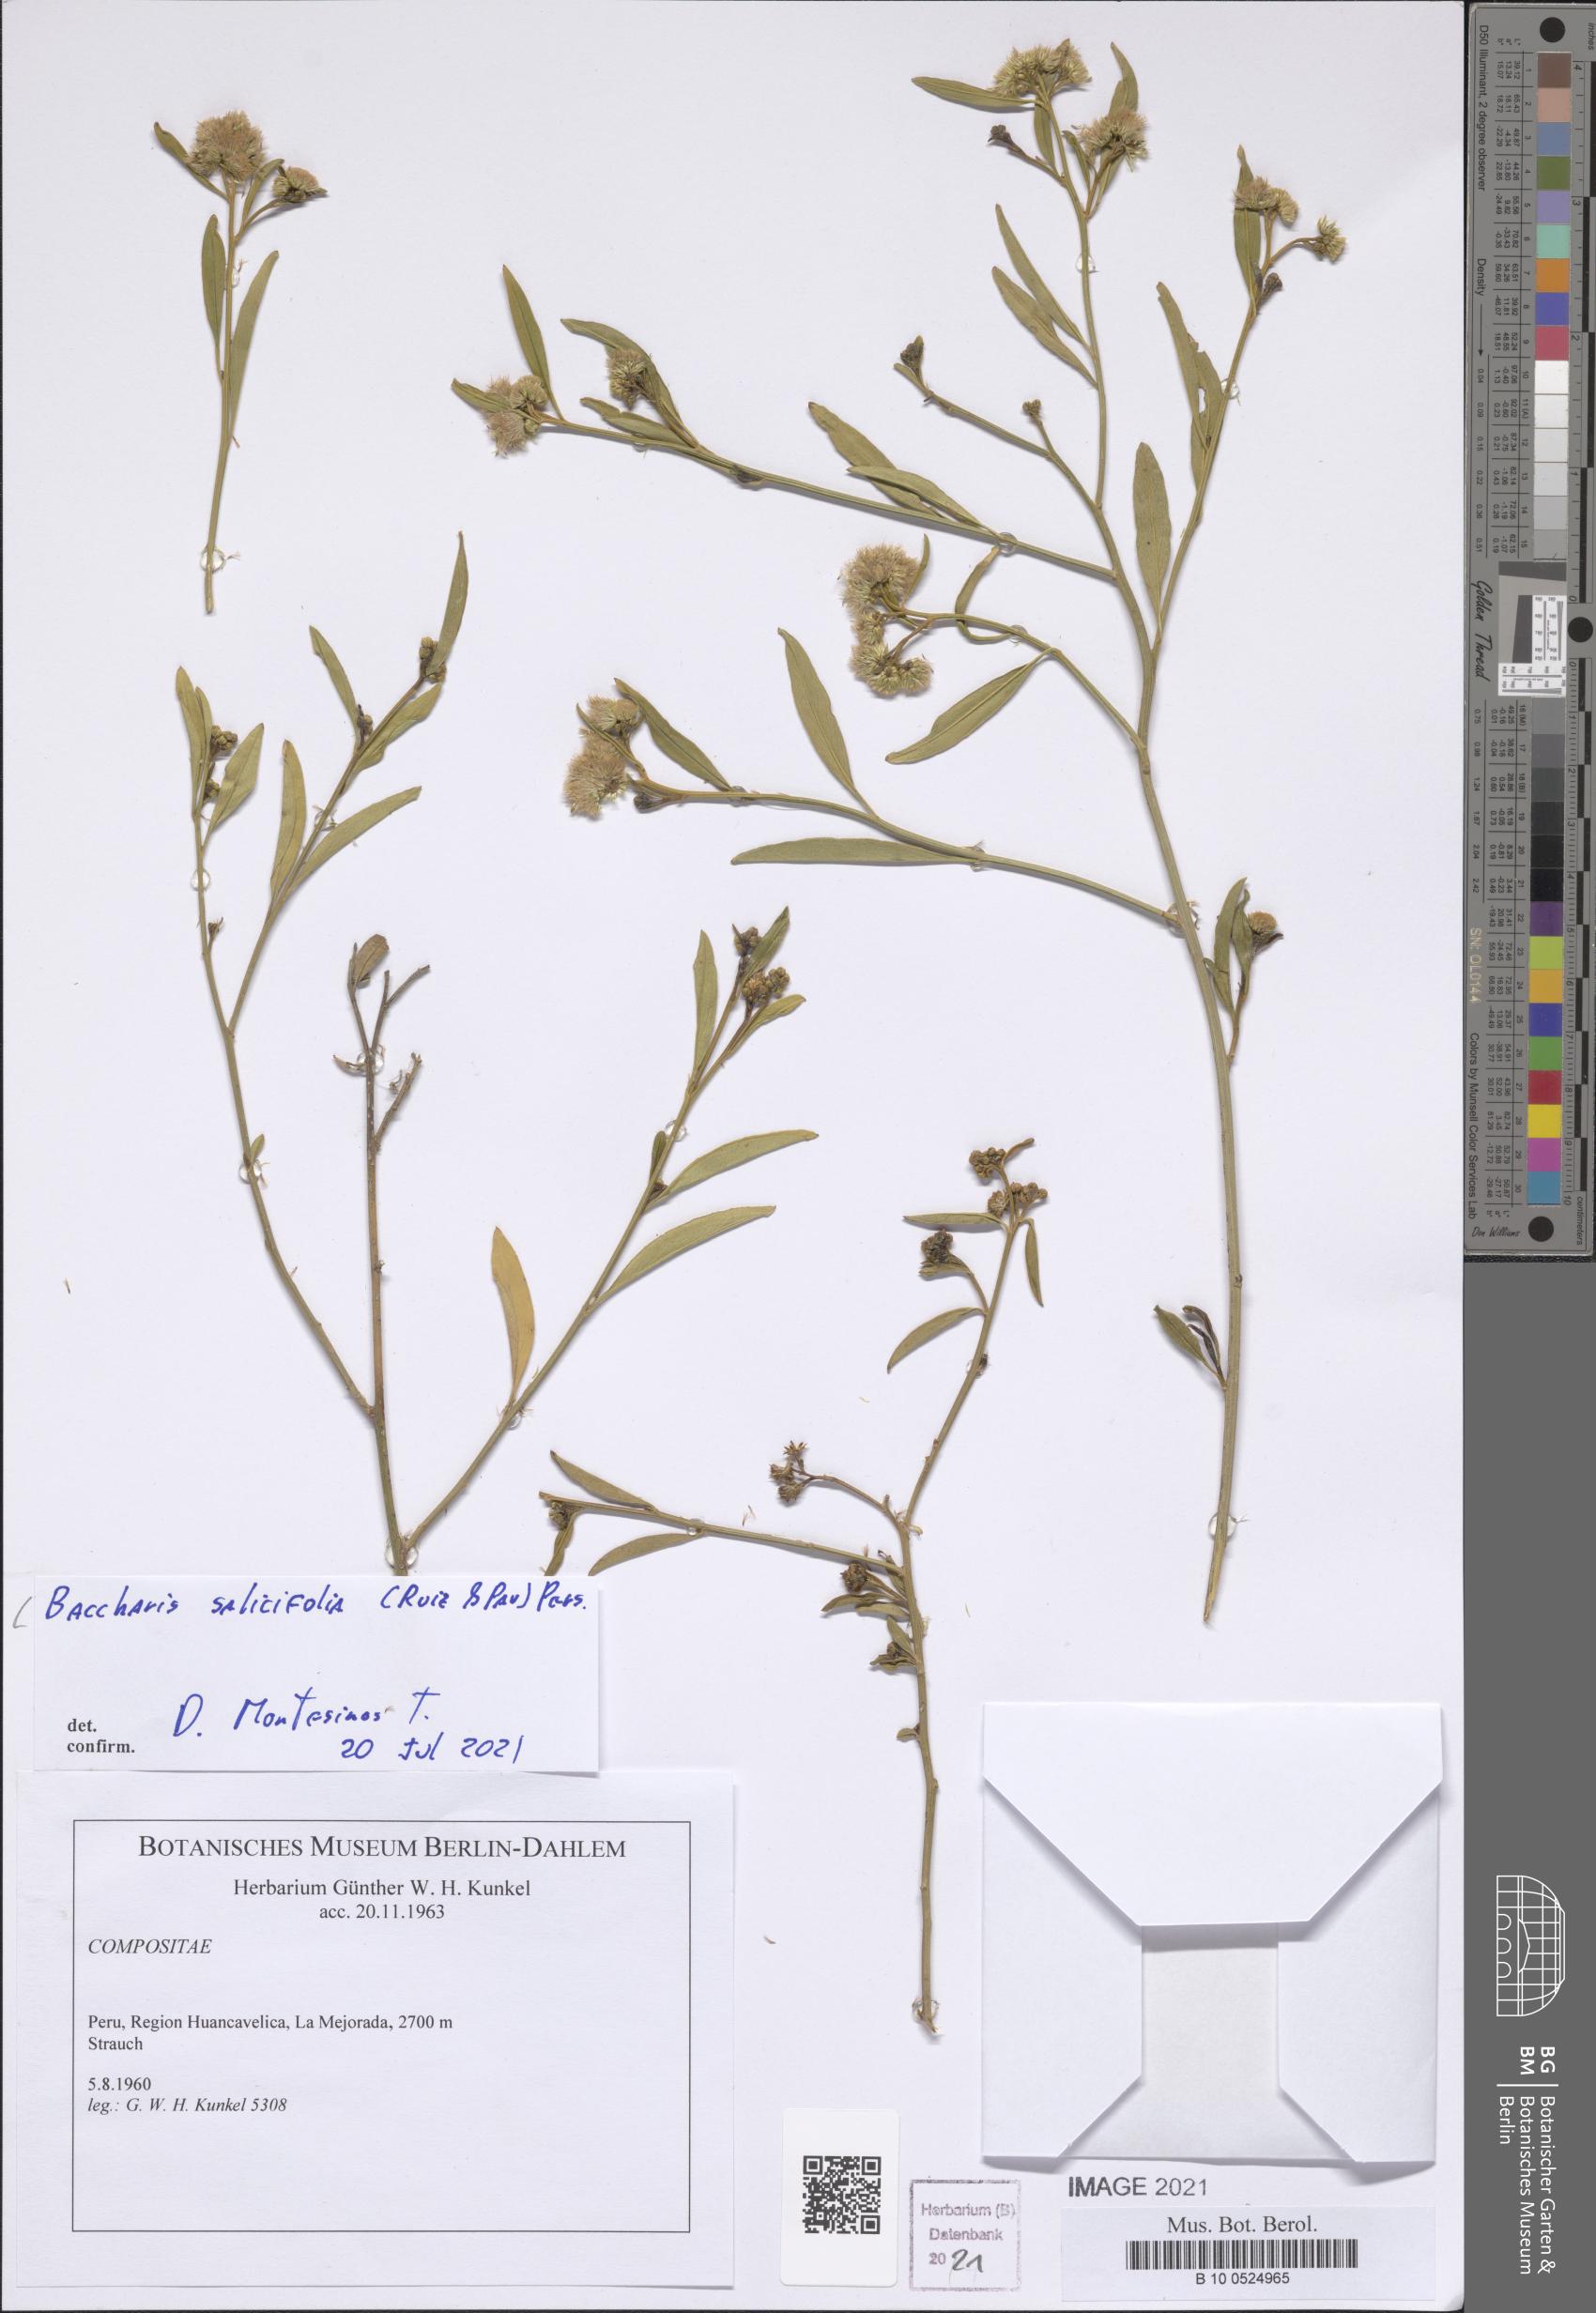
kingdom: Plantae
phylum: Tracheophyta
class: Magnoliopsida
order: Asterales
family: Asteraceae
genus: Baccharis
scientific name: Baccharis salicifolia
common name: Sticky baccharis
